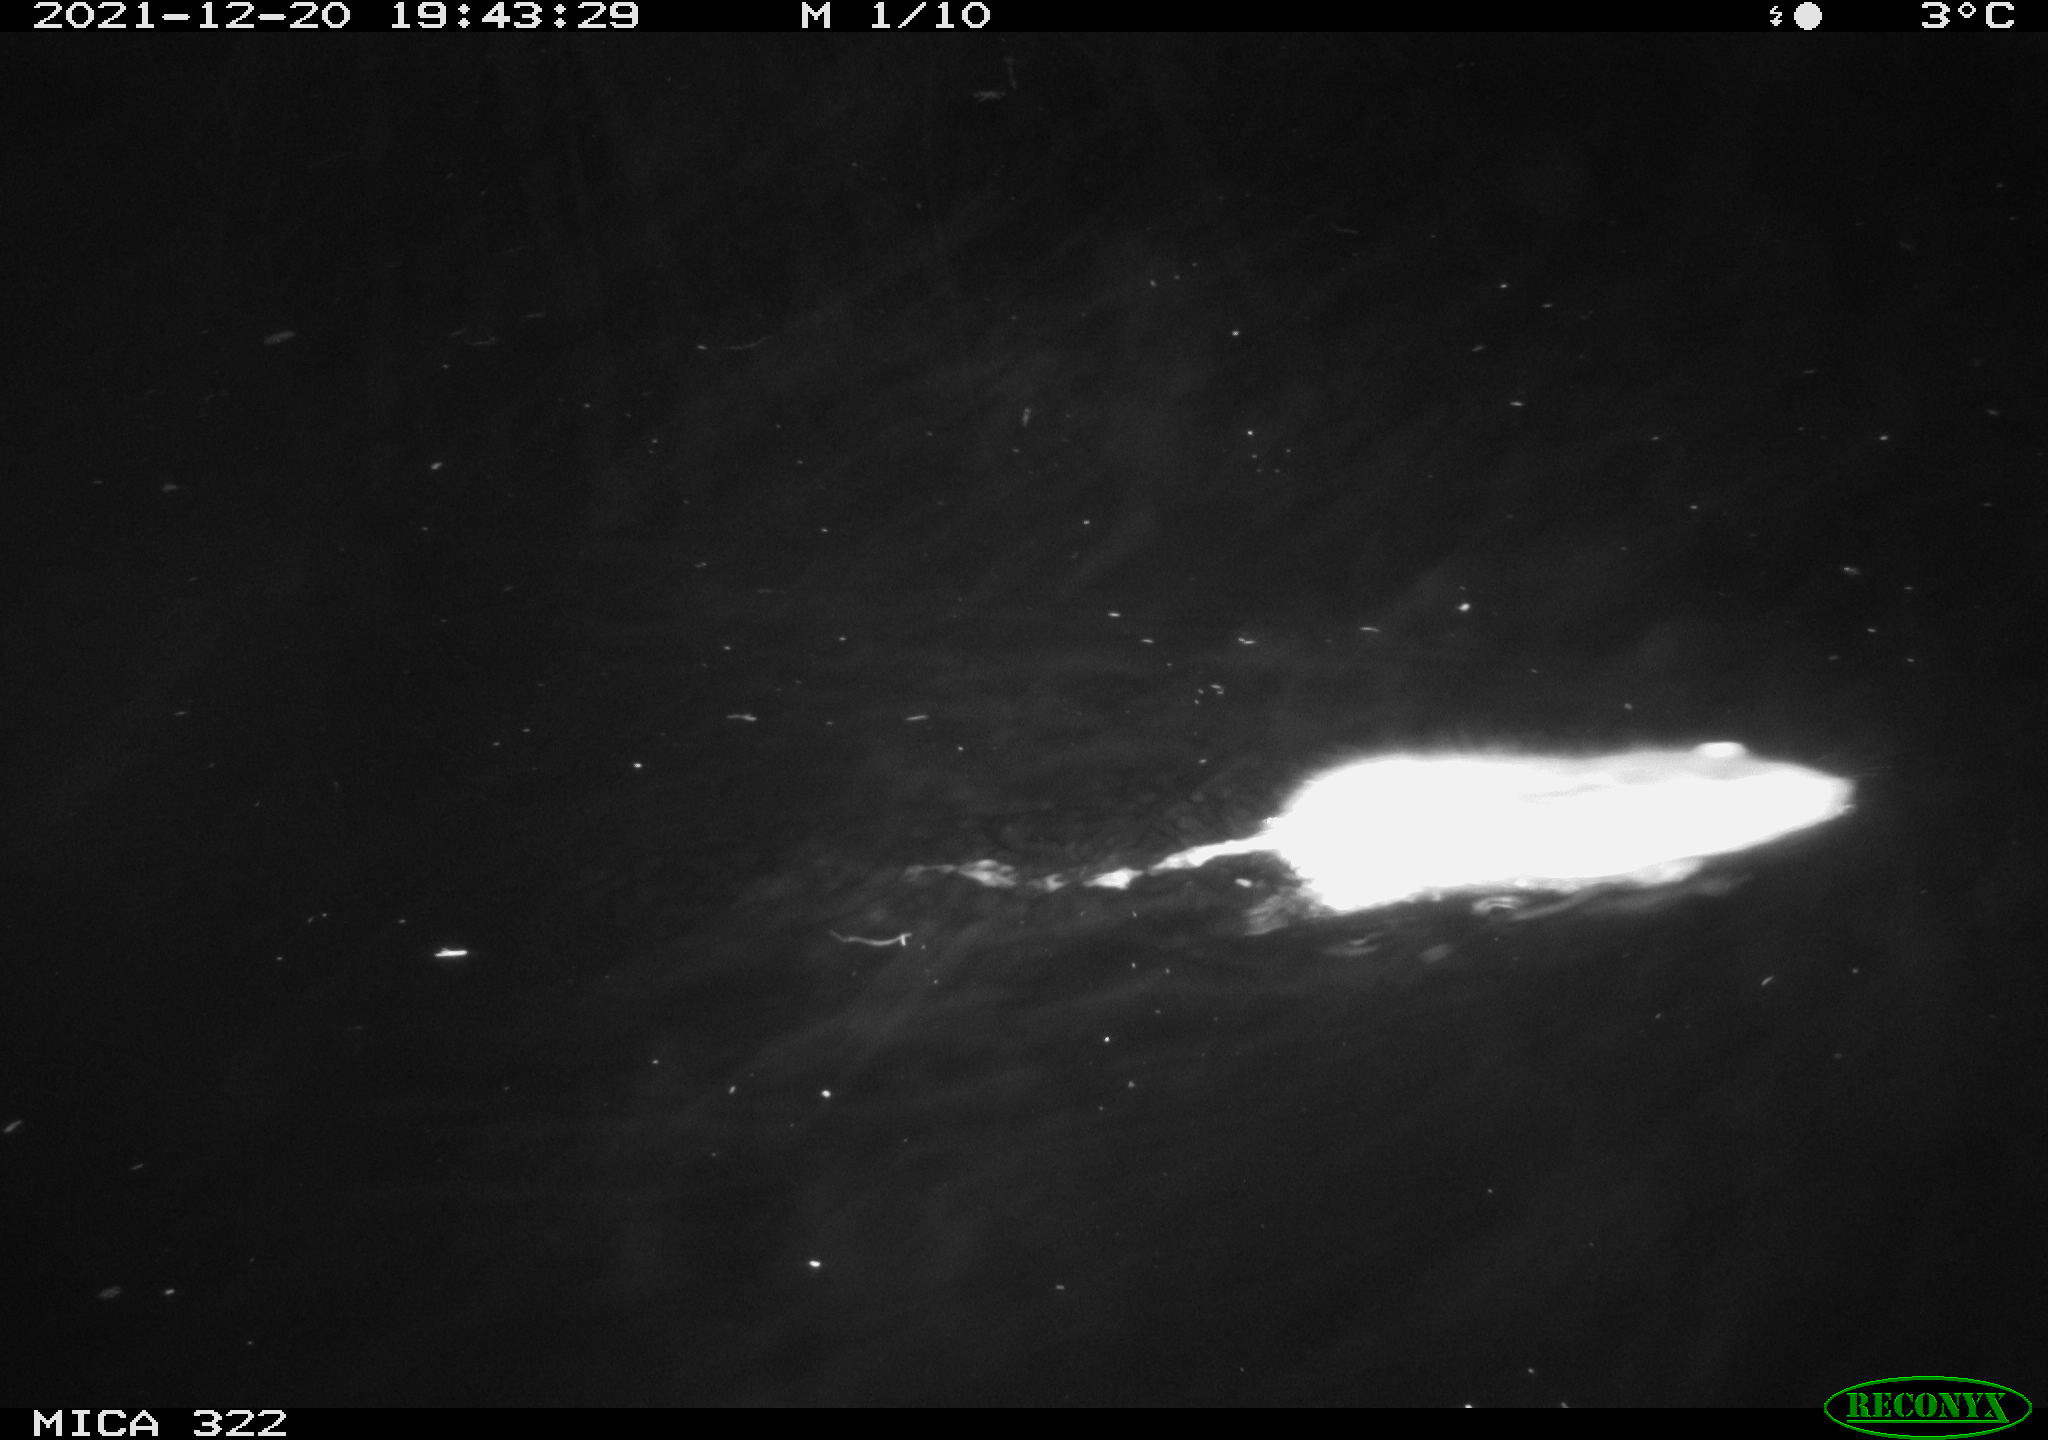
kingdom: Animalia
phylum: Chordata
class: Mammalia
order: Rodentia
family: Muridae
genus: Rattus
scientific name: Rattus norvegicus
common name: Brown rat
